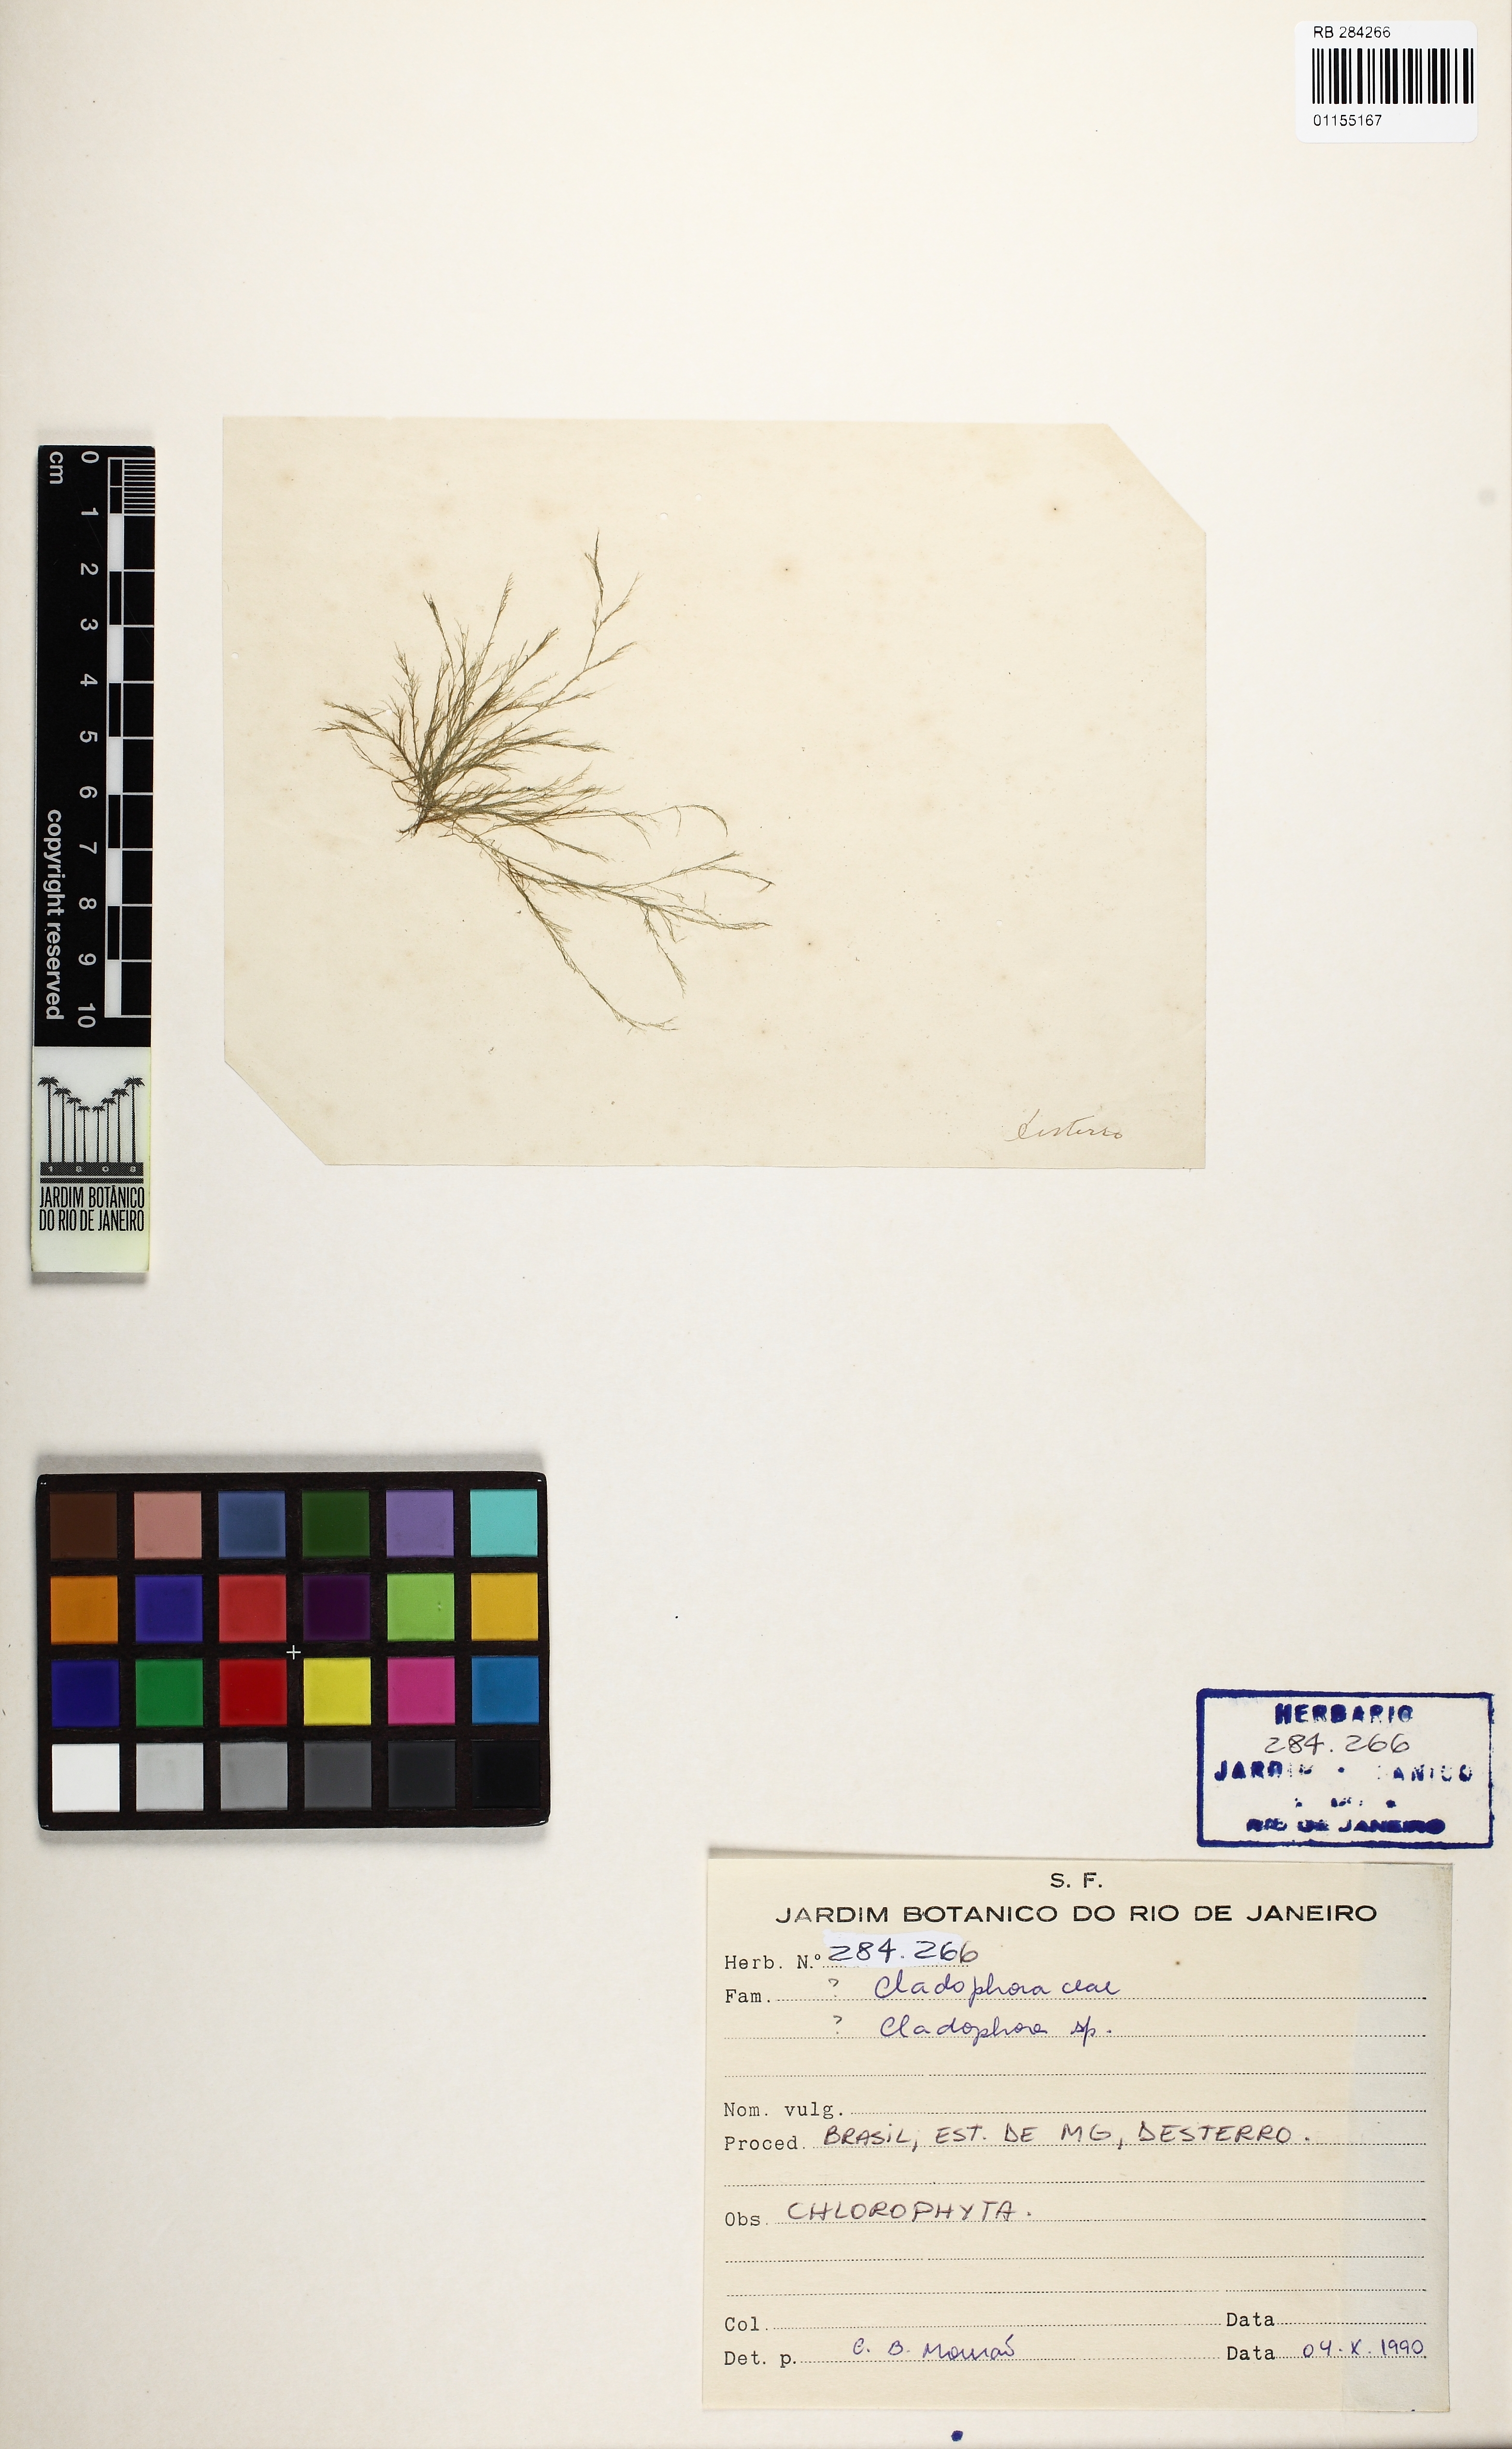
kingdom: Plantae
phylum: Chlorophyta
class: Ulvophyceae
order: Cladophorales
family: Cladophoraceae
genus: Cladophora
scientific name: Cladophora
